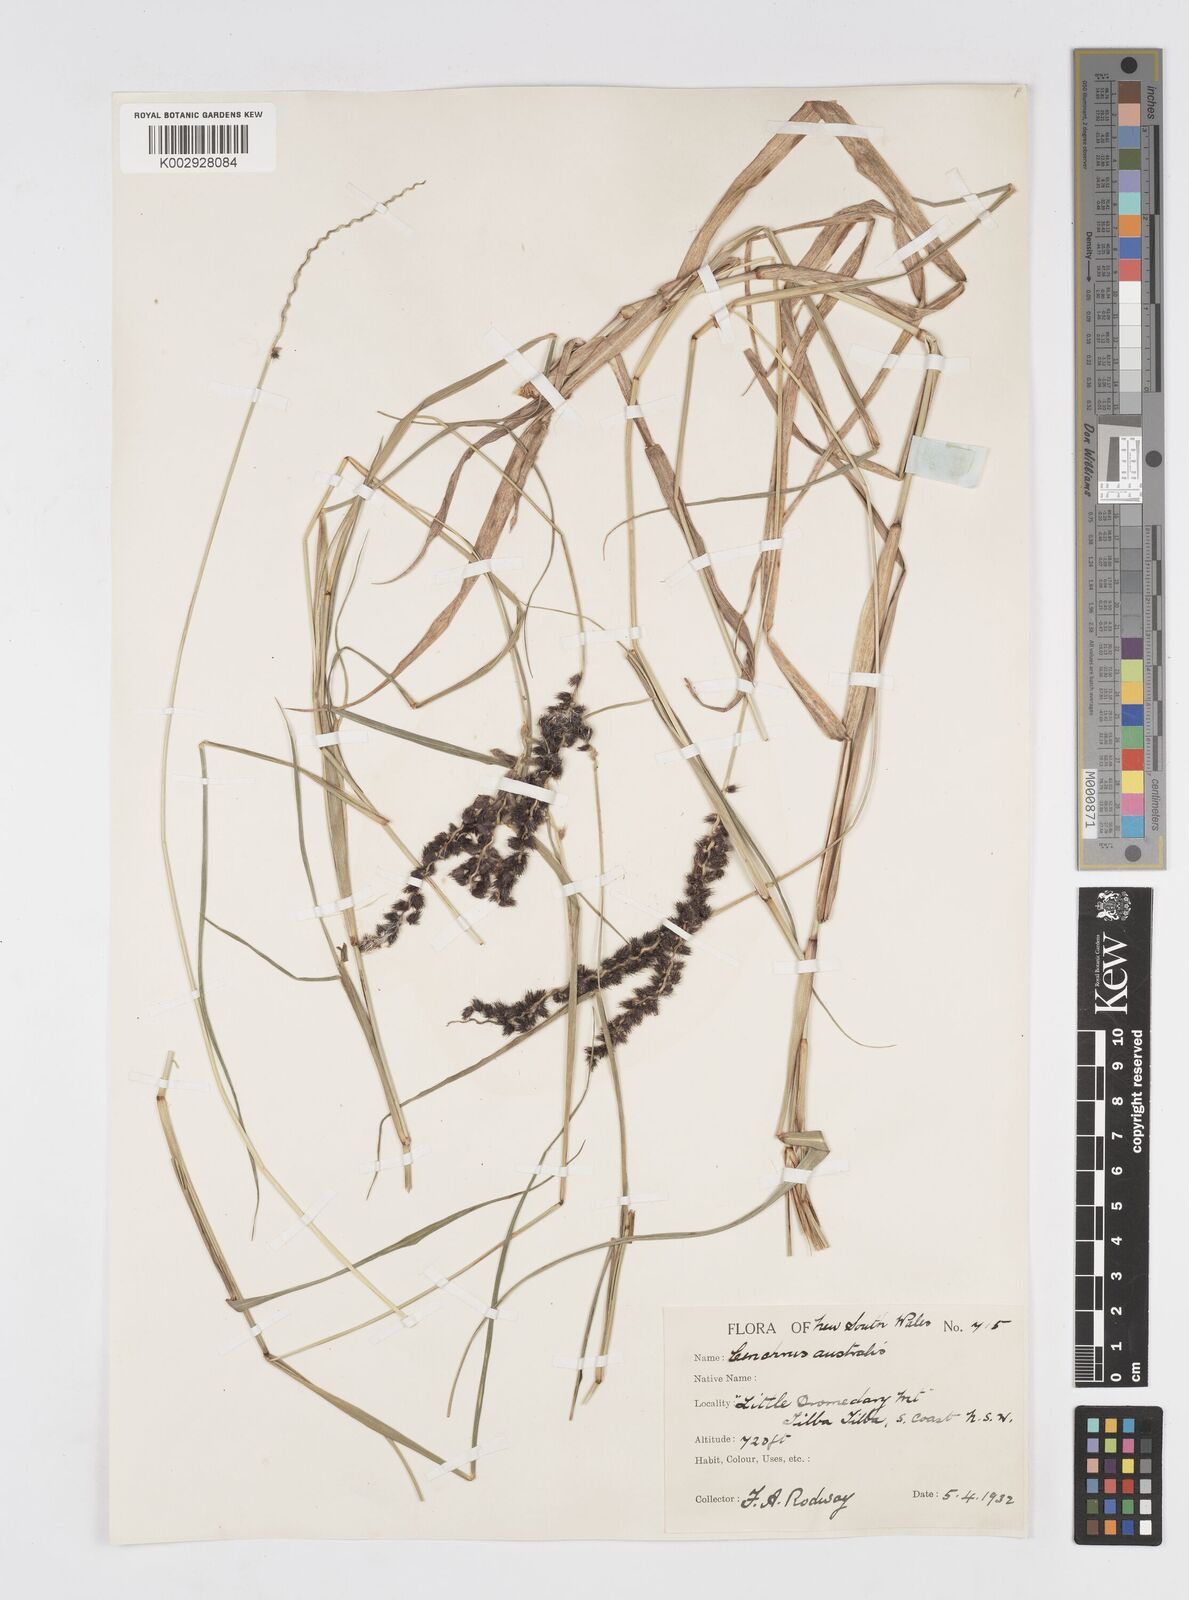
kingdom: Plantae
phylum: Tracheophyta
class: Liliopsida
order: Poales
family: Poaceae
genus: Cenchrus
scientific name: Cenchrus caliculatus
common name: Large bur grass
